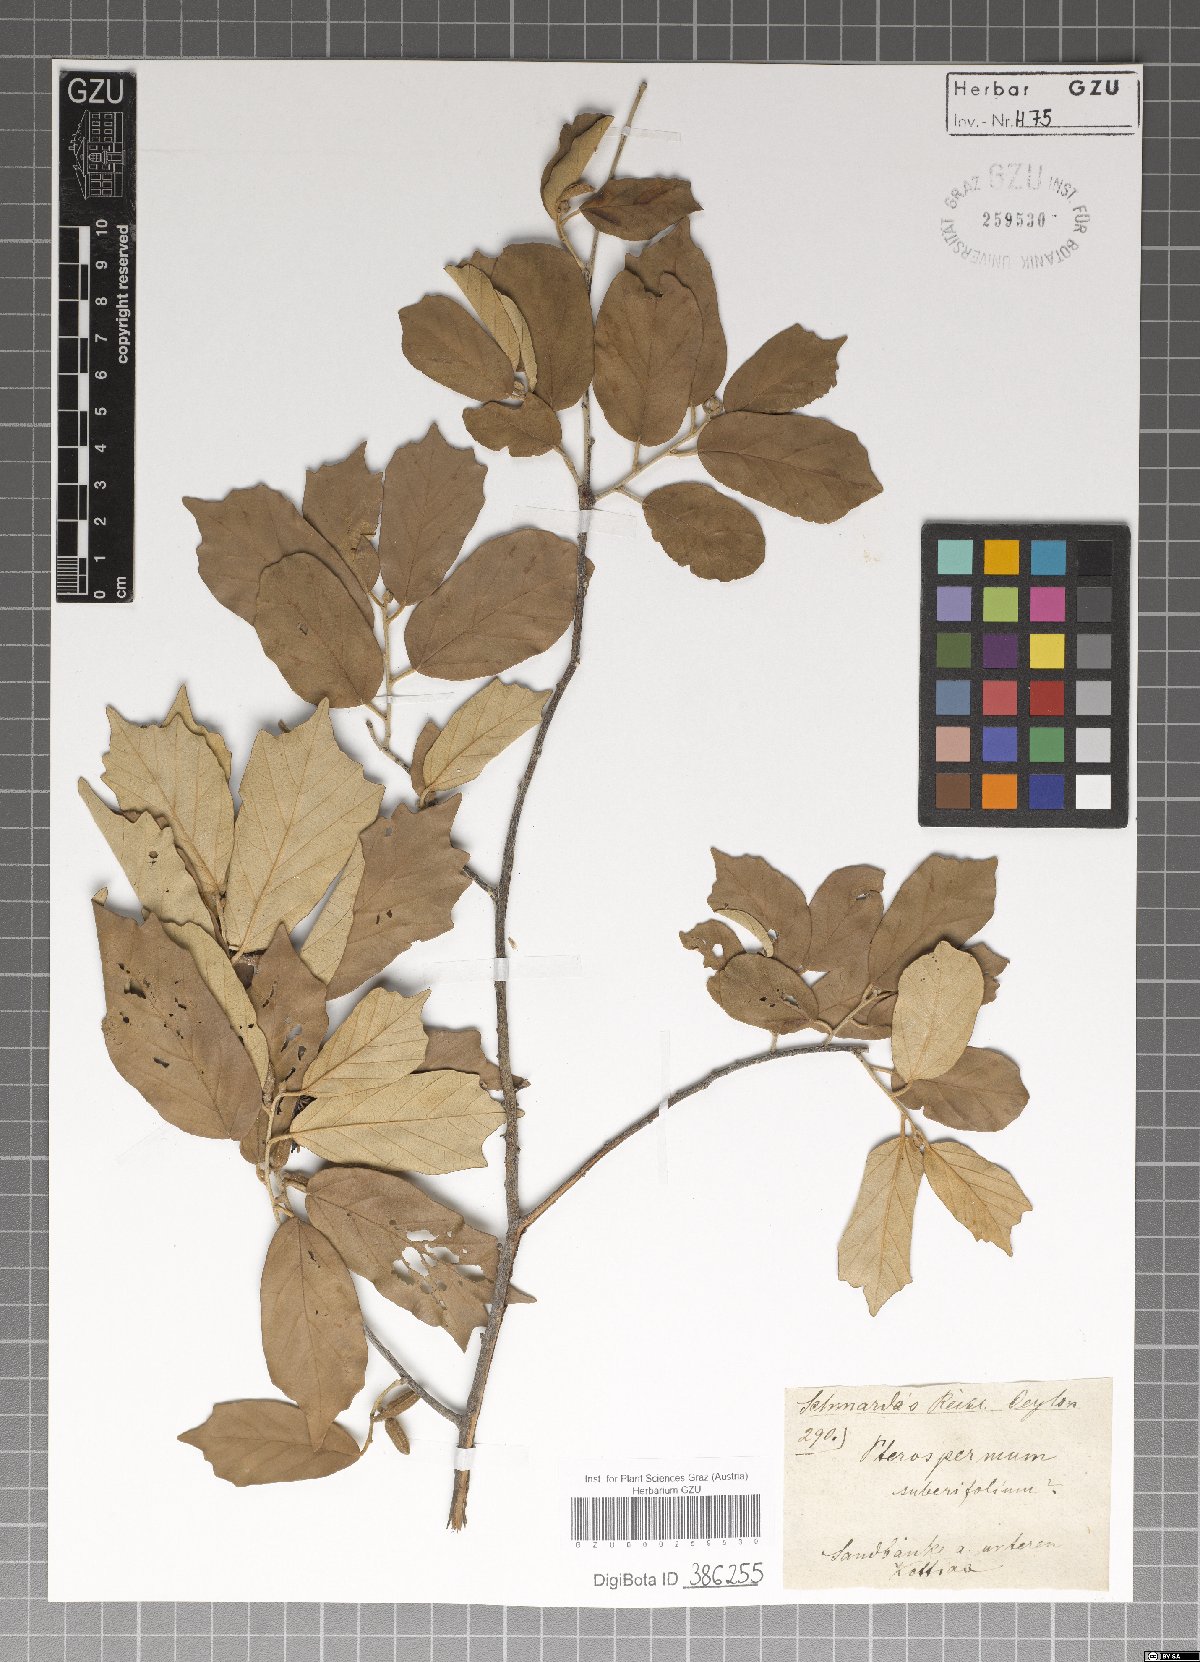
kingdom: Plantae
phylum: Tracheophyta
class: Magnoliopsida
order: Malvales
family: Malvaceae
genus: Pterospermum
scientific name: Pterospermum suberifolium
